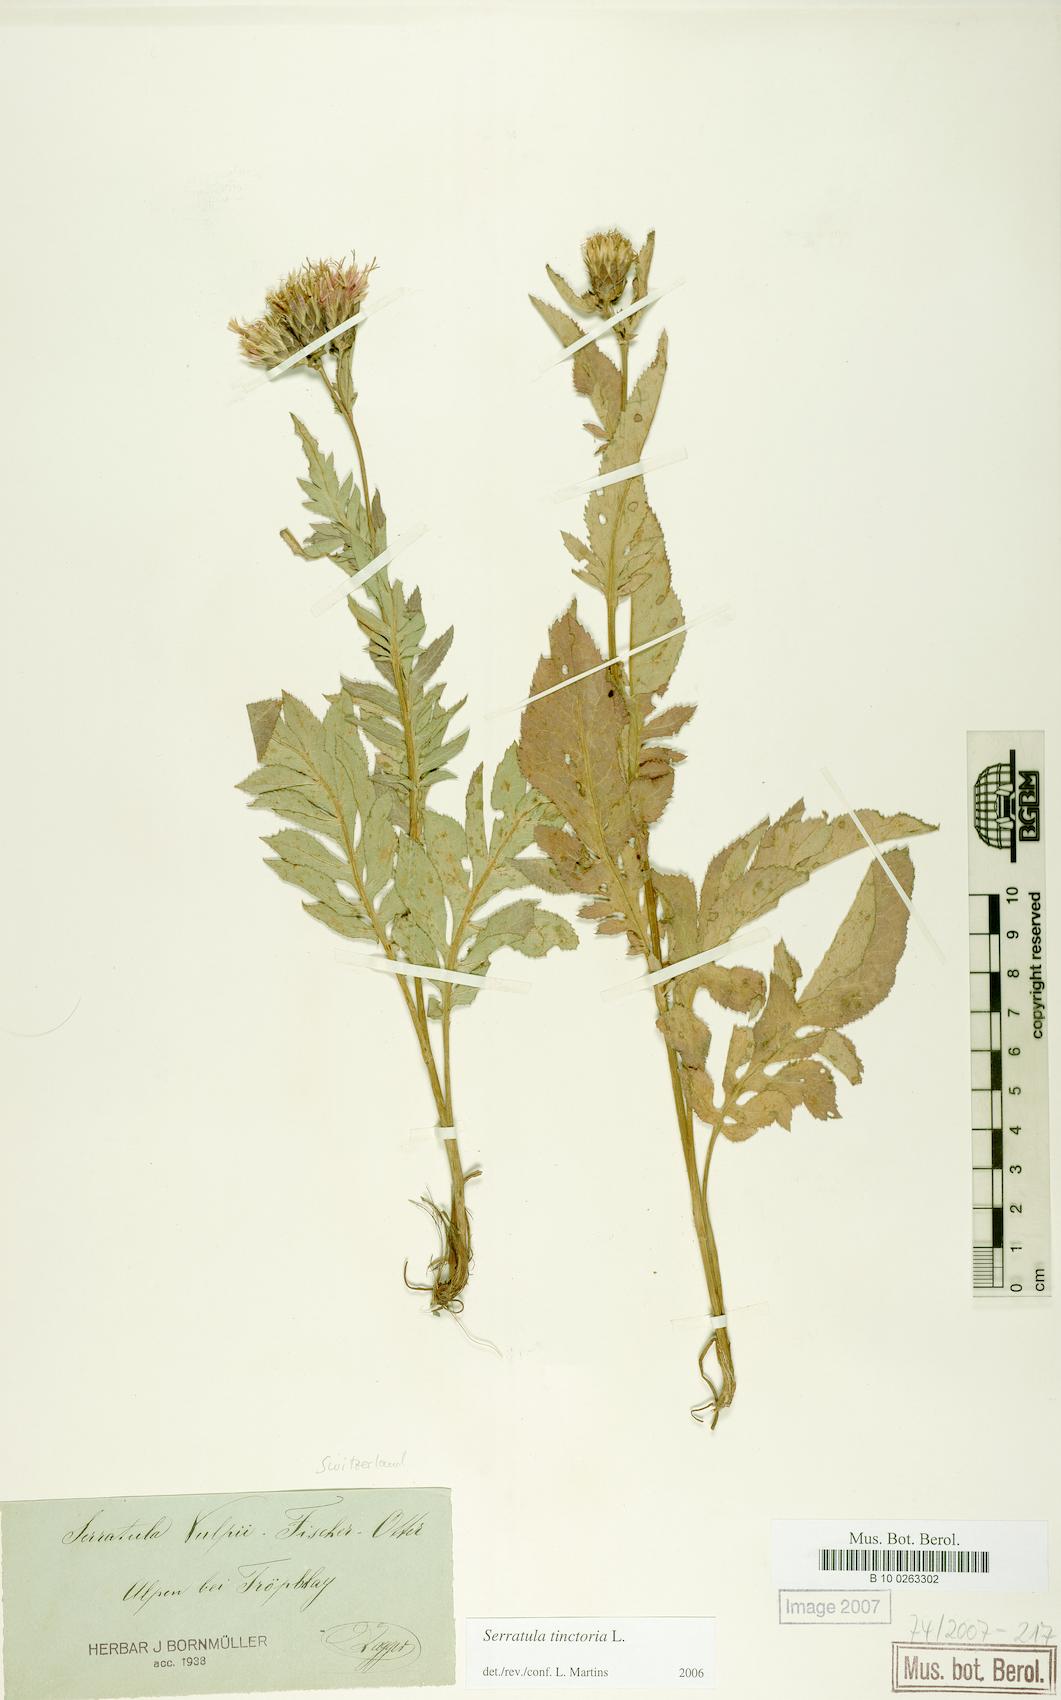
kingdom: Plantae
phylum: Tracheophyta
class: Magnoliopsida
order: Asterales
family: Asteraceae
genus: Serratula
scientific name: Serratula tinctoria
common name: Saw-wort
